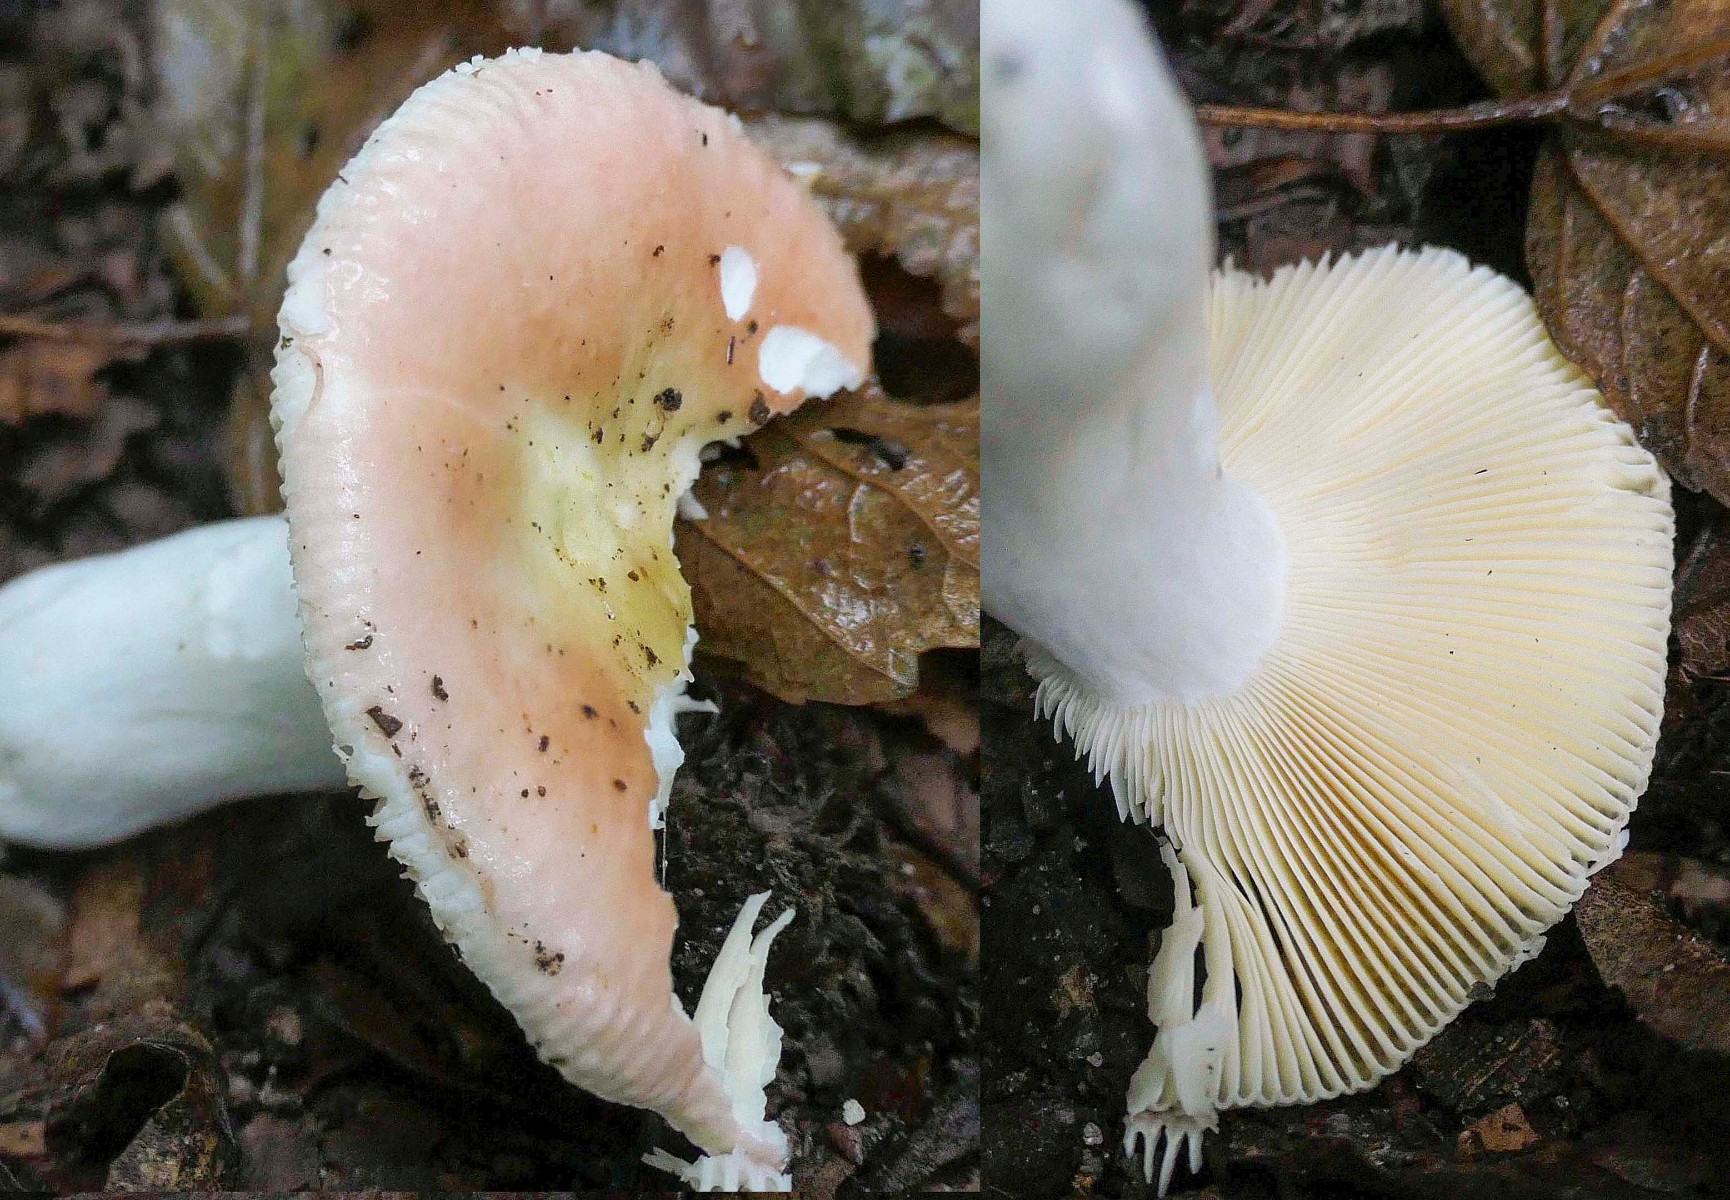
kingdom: Fungi
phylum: Basidiomycota
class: Agaricomycetes
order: Russulales
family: Russulaceae
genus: Russula
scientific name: Russula veternosa
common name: blødkødet skørhat
